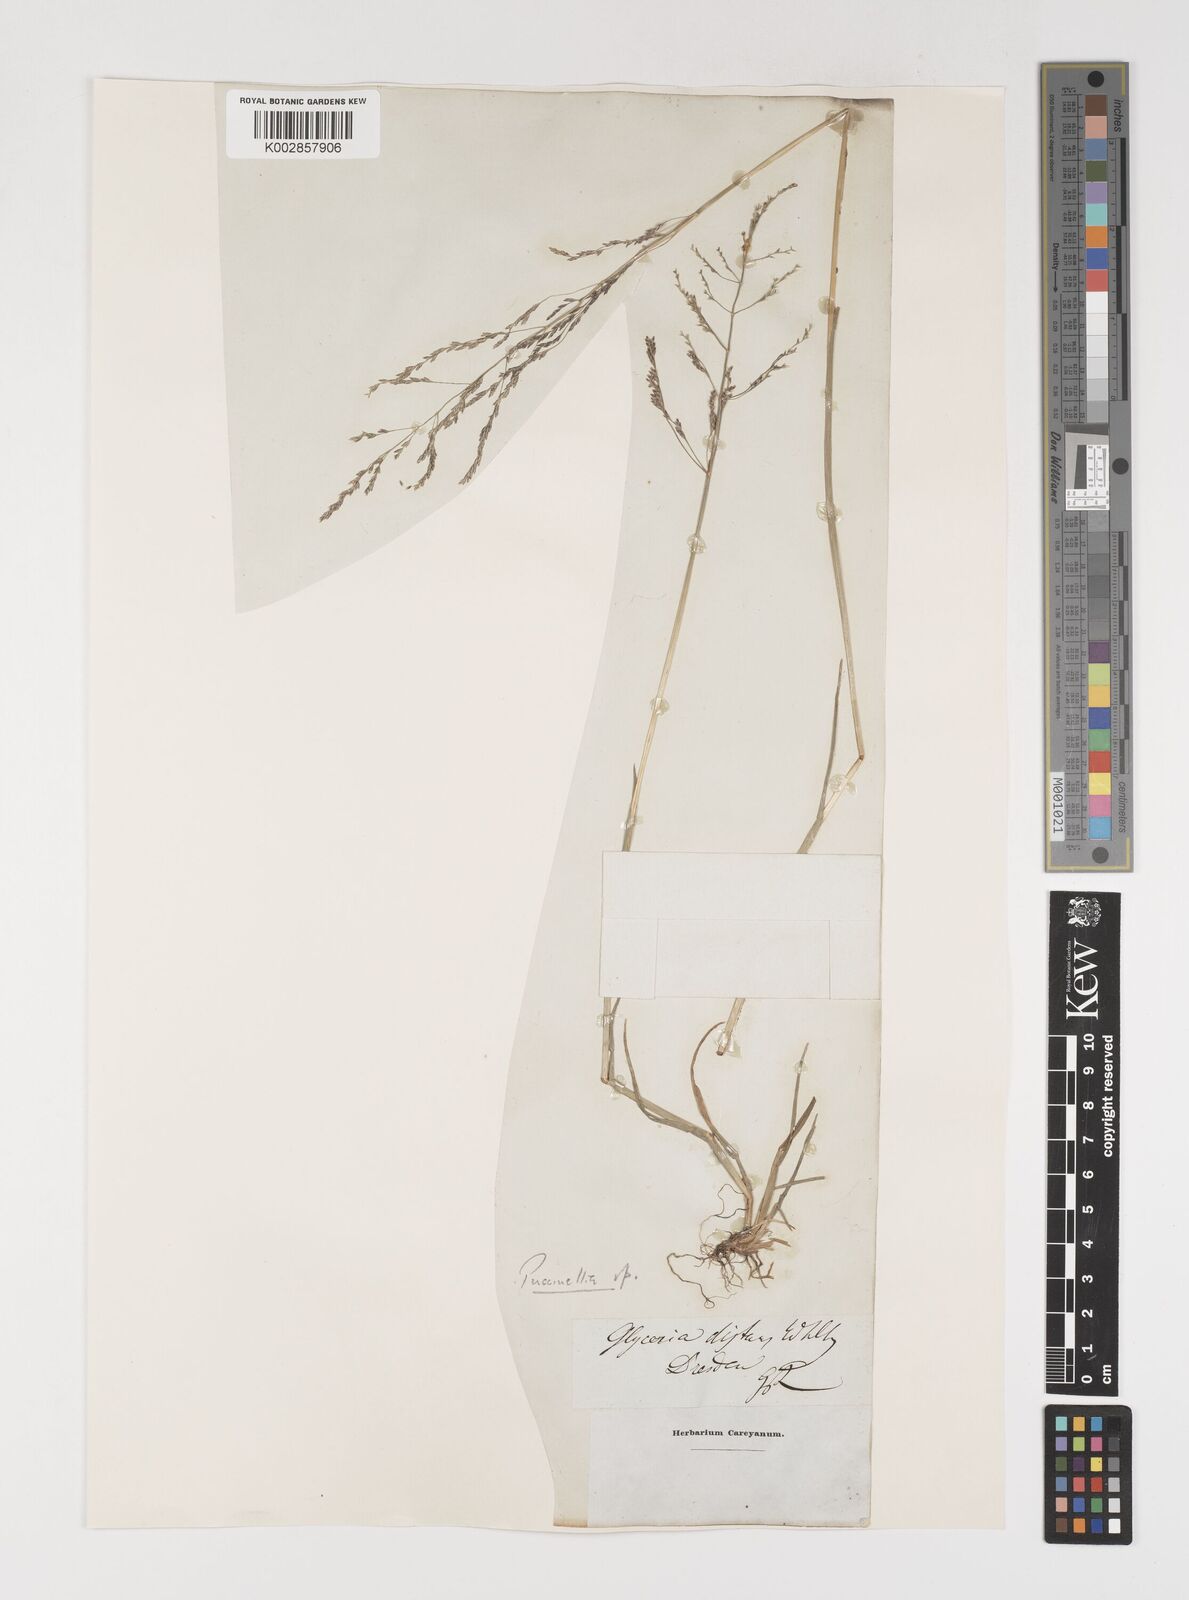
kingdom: Plantae
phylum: Tracheophyta
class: Liliopsida
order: Poales
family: Poaceae
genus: Puccinellia
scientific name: Puccinellia
